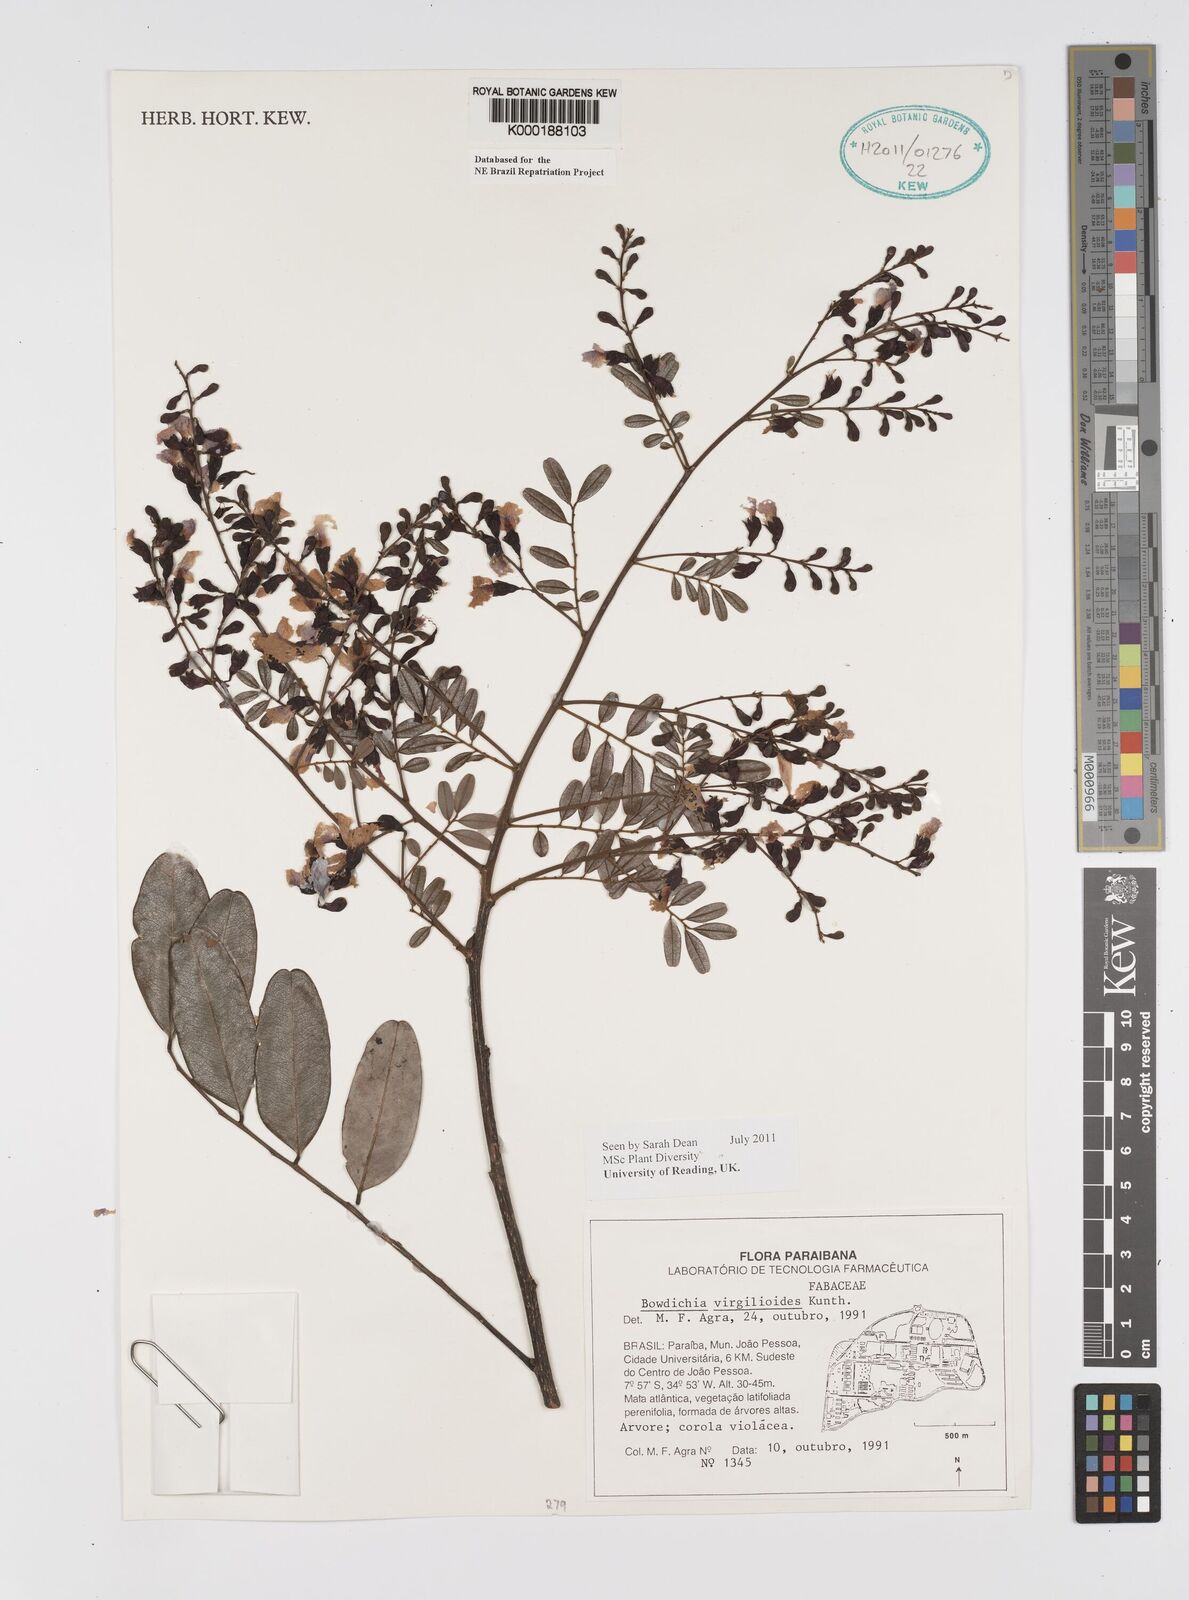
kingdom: Plantae
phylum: Tracheophyta
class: Magnoliopsida
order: Fabales
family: Fabaceae
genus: Bowdichia
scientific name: Bowdichia virgilioides
